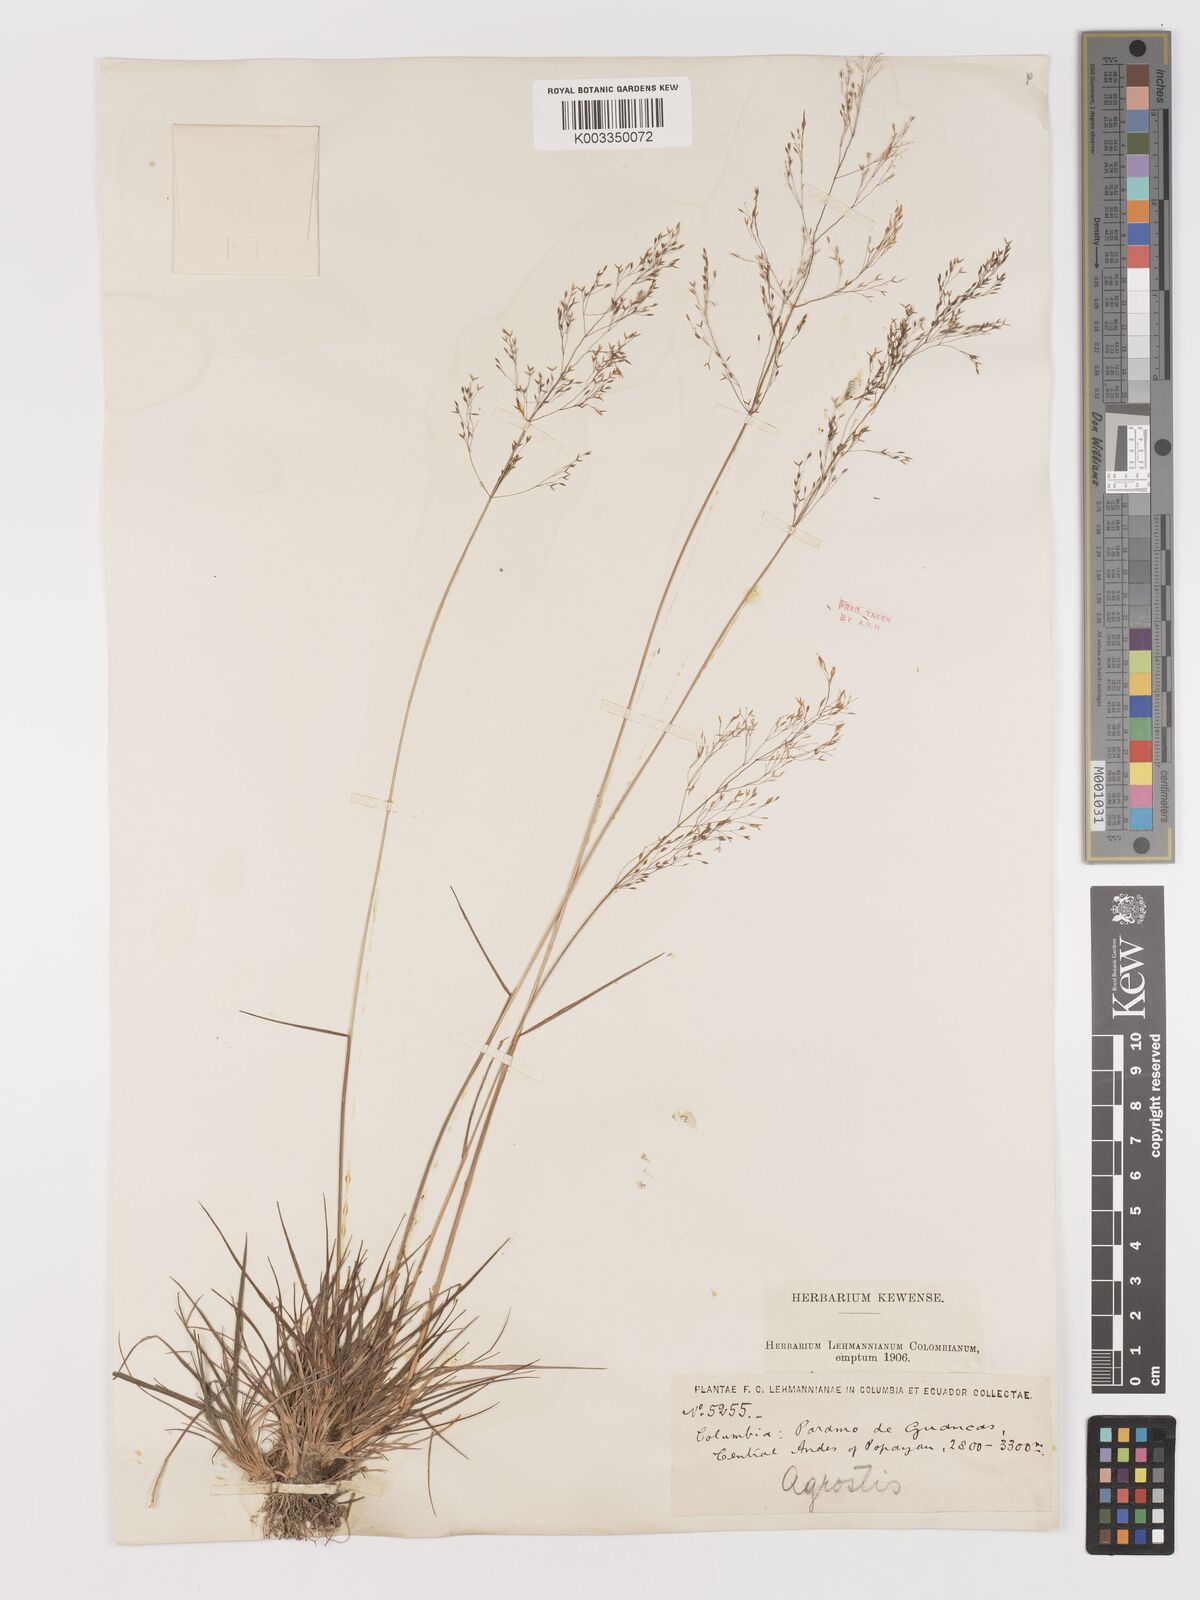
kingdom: Plantae
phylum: Tracheophyta
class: Liliopsida
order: Poales
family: Poaceae
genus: Agrostis
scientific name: Agrostis
